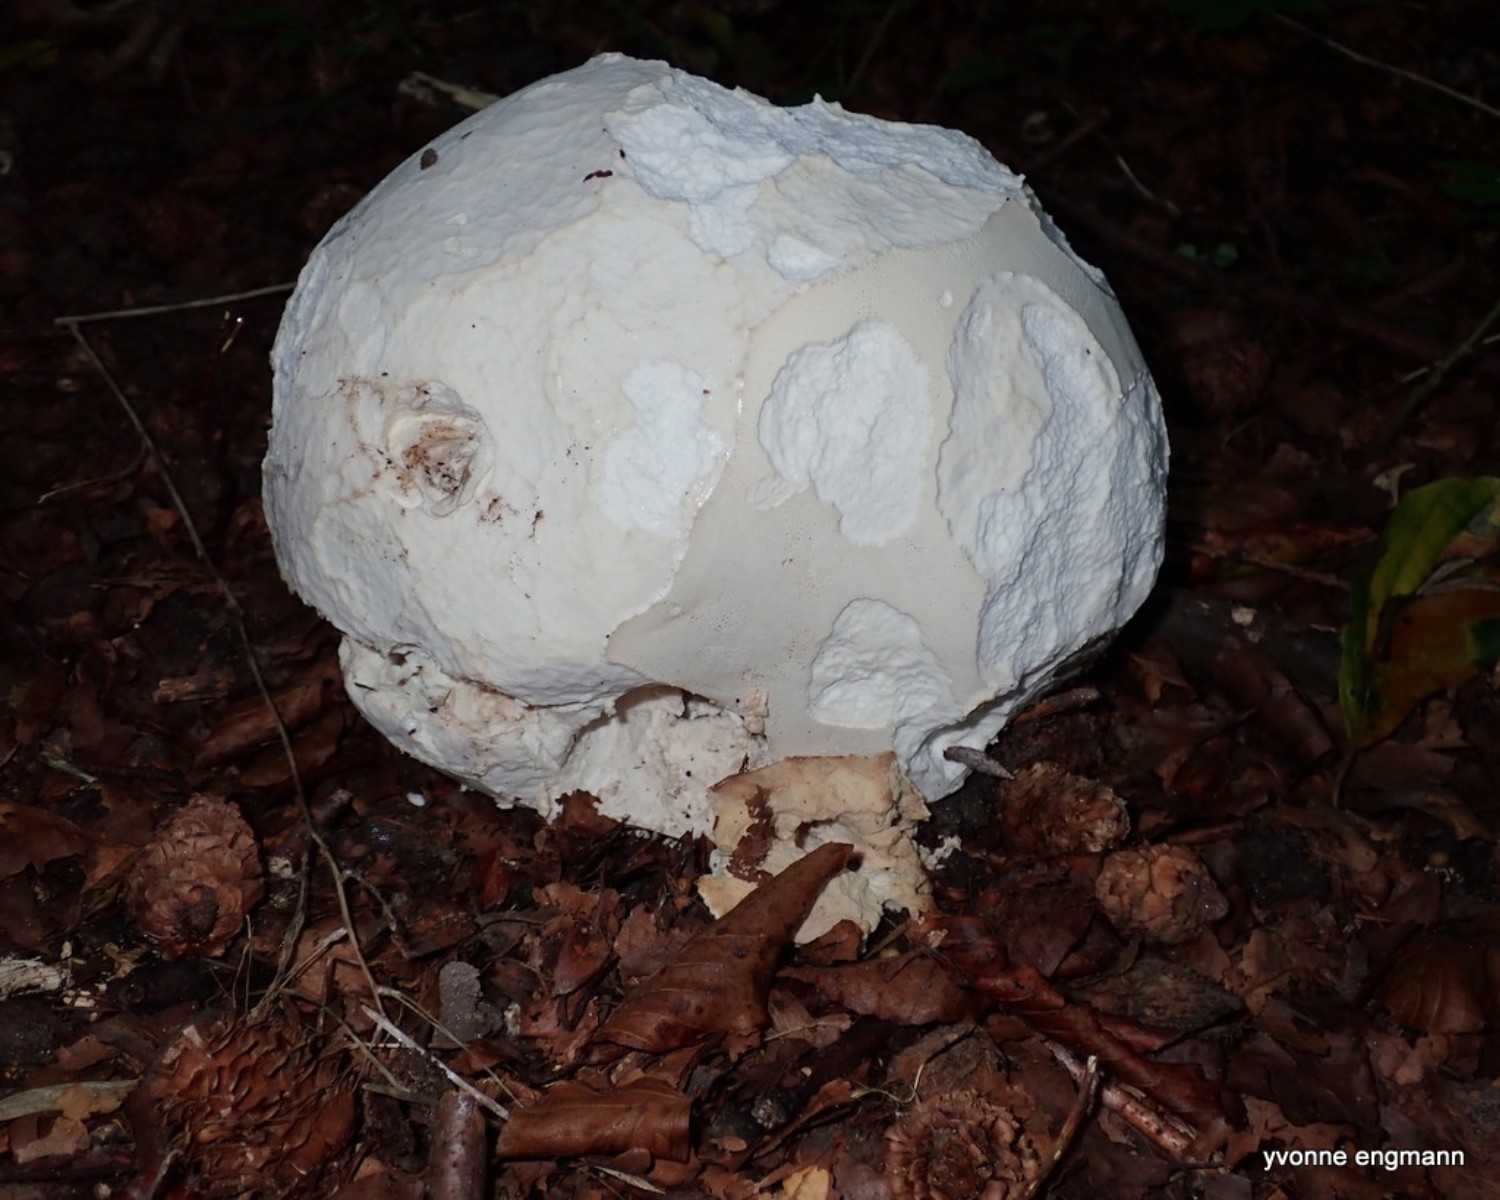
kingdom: Fungi
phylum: Basidiomycota
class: Agaricomycetes
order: Agaricales
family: Lycoperdaceae
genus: Calvatia
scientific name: Calvatia gigantea
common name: kæmpestøvbold
